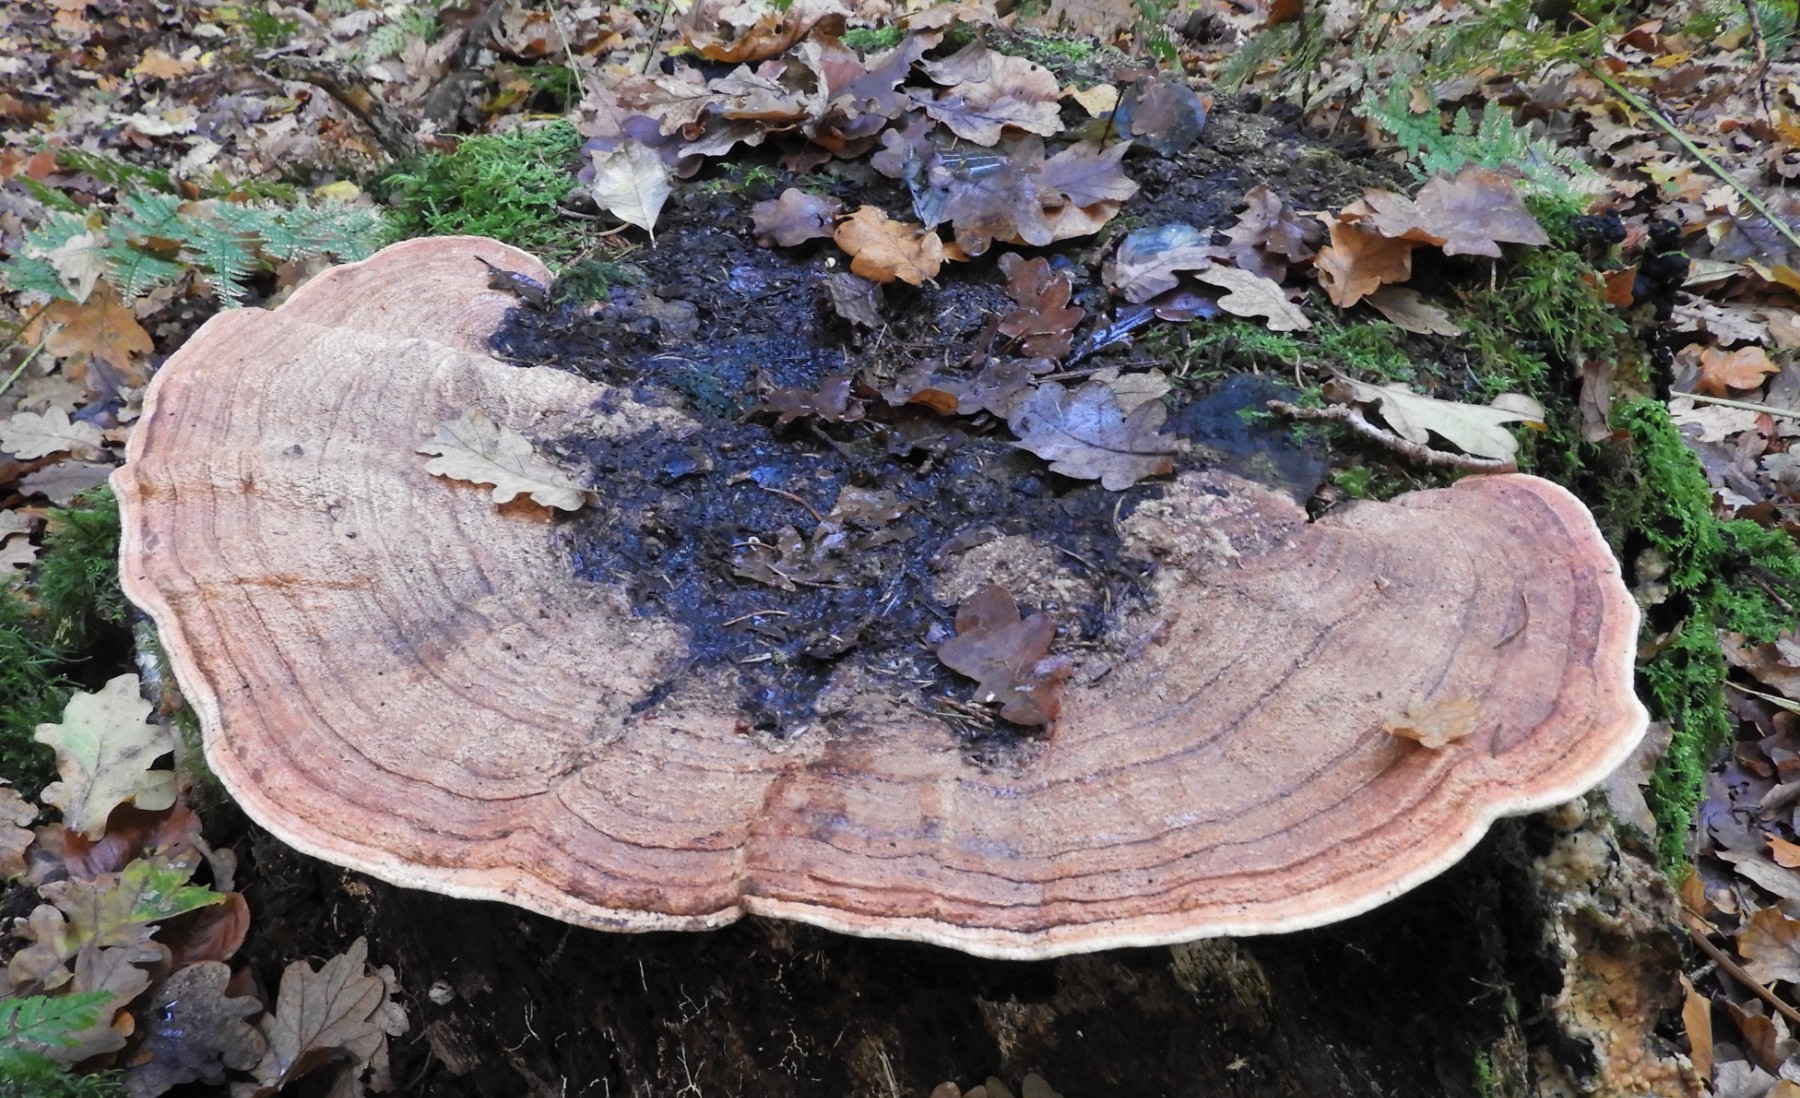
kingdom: Fungi
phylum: Basidiomycota
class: Agaricomycetes
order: Polyporales
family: Fomitopsidaceae
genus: Daedalea
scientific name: Daedalea quercina
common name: ege-labyrintsvamp
